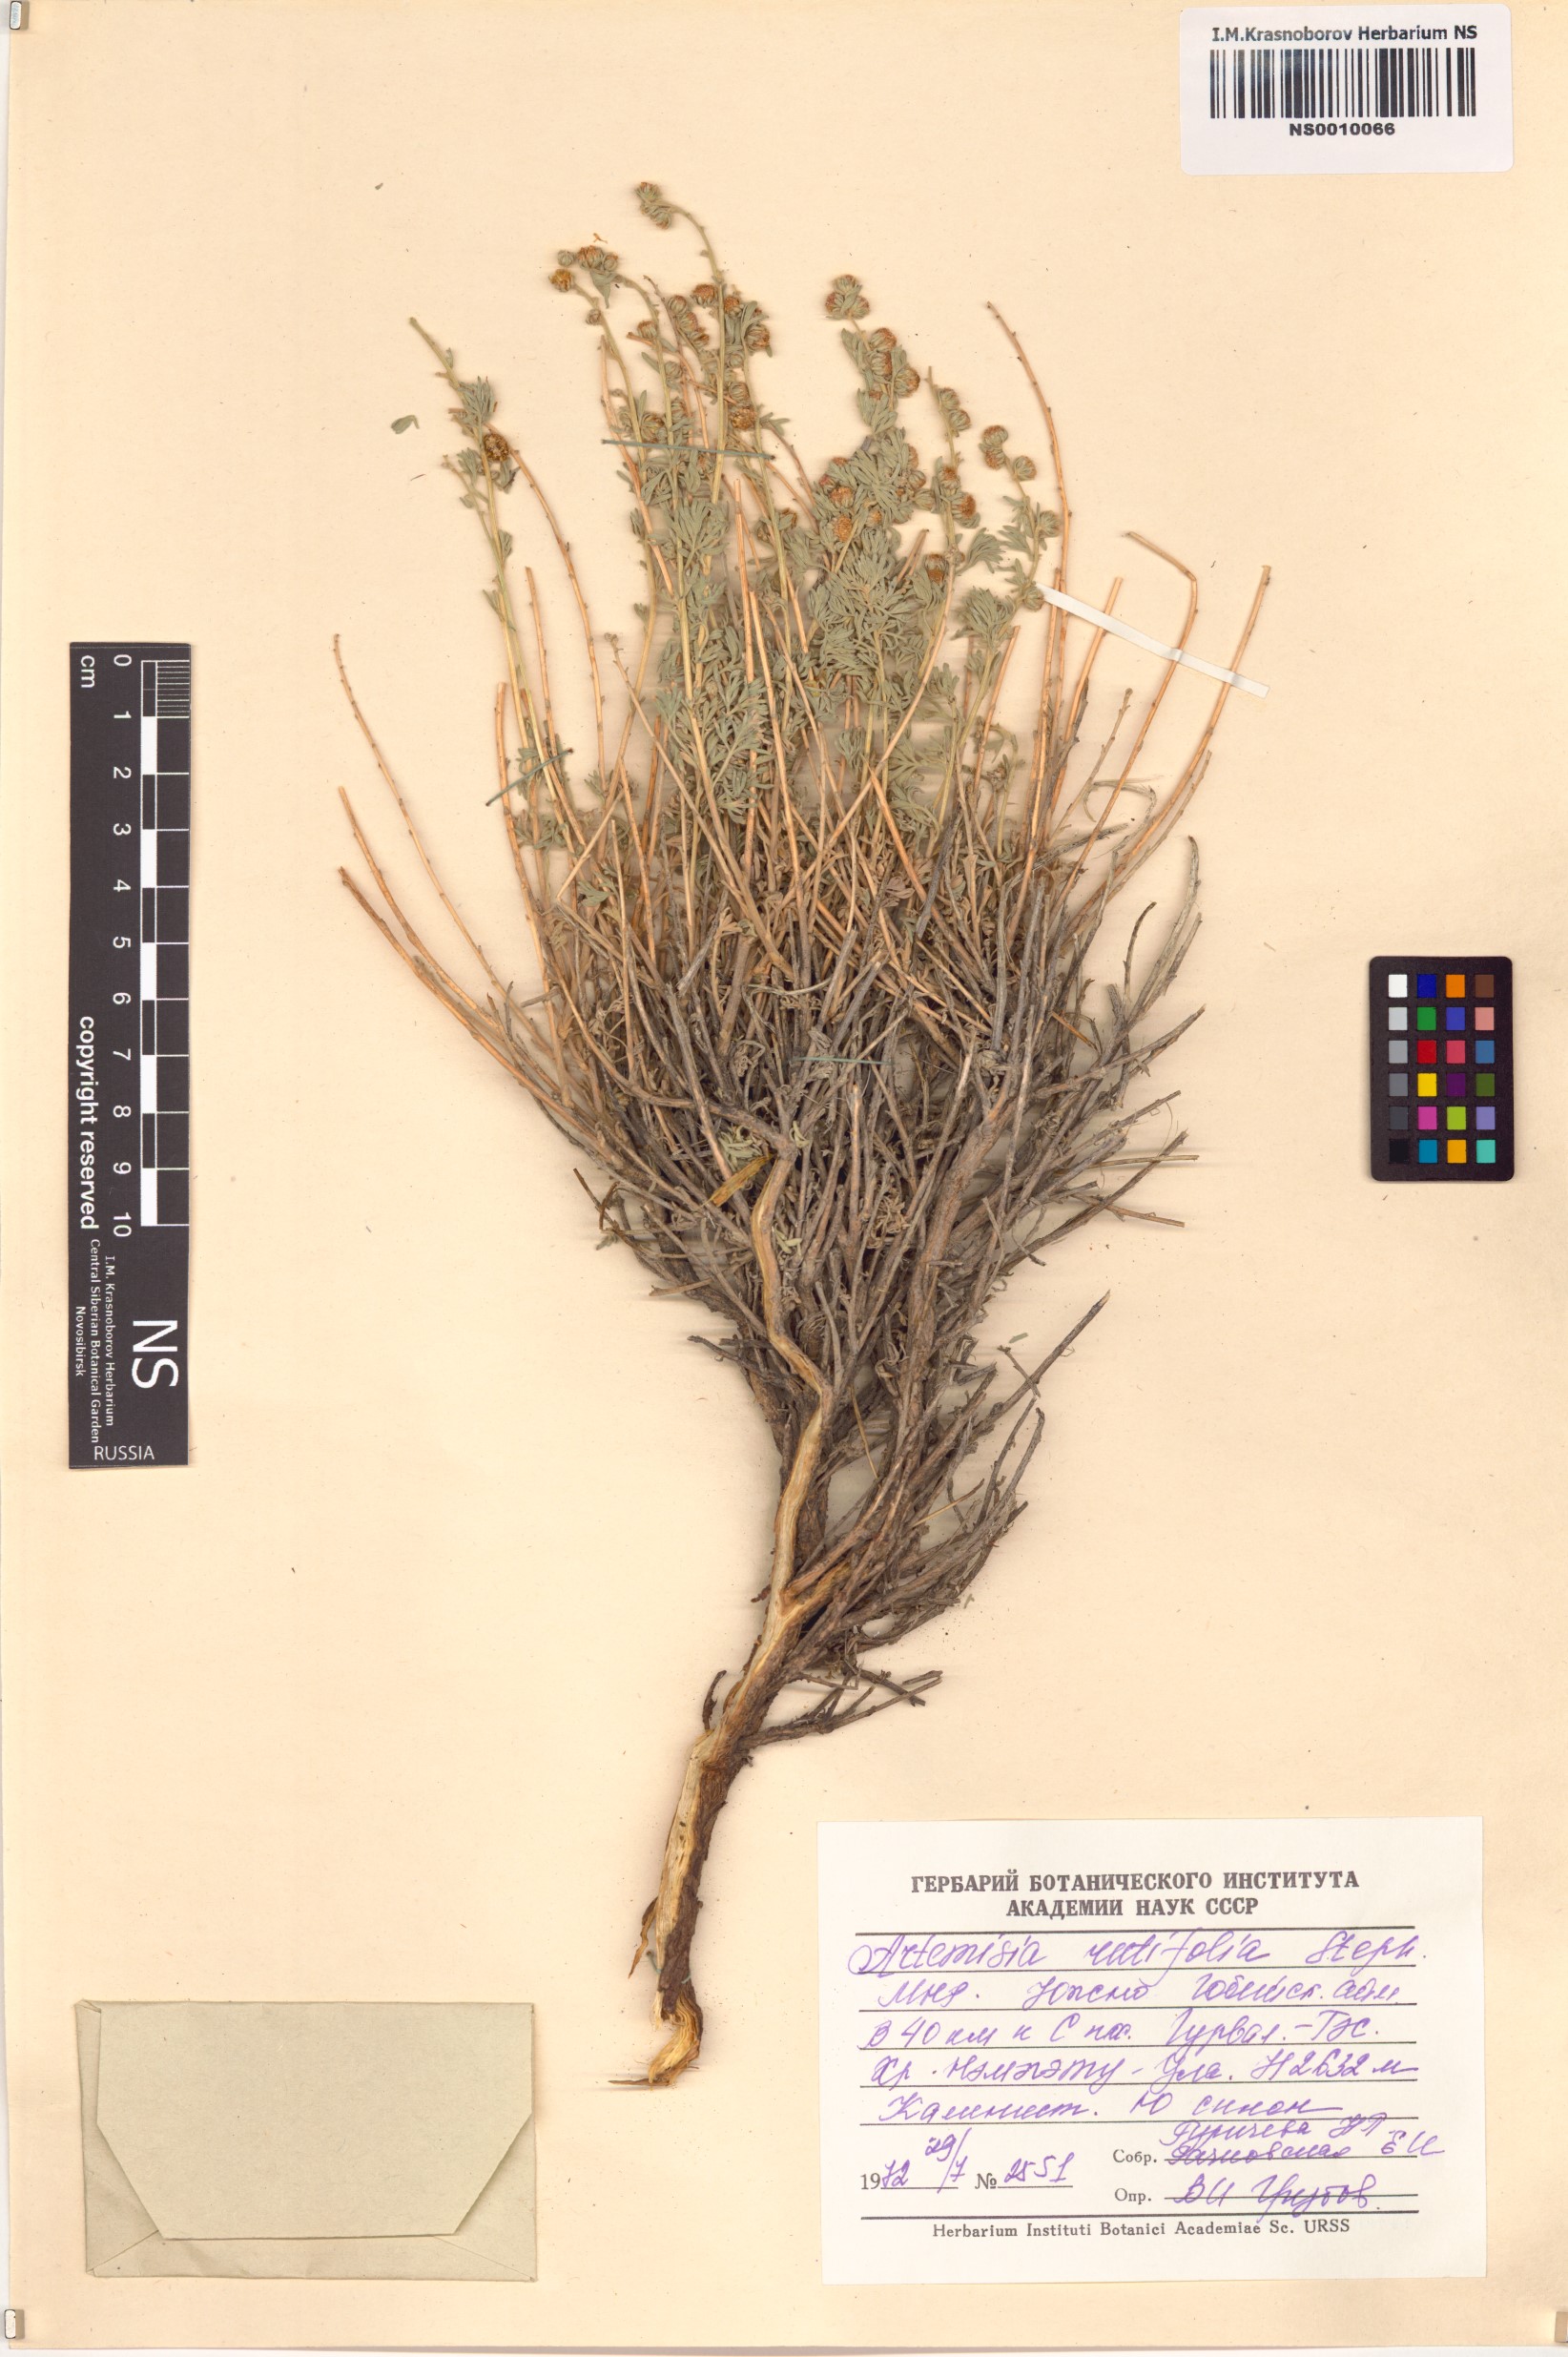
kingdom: Plantae
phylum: Tracheophyta
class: Magnoliopsida
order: Asterales
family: Asteraceae
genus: Artemisia
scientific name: Artemisia rutifolia
